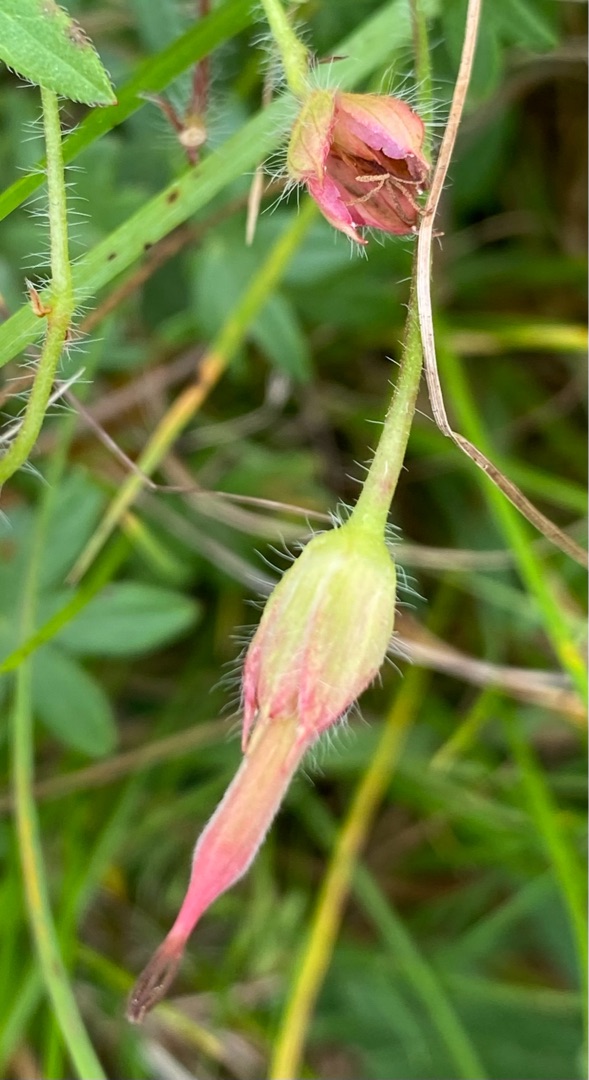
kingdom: Plantae
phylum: Tracheophyta
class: Magnoliopsida
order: Geraniales
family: Geraniaceae
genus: Geranium
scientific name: Geranium sanguineum
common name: Blodrød storkenæb
